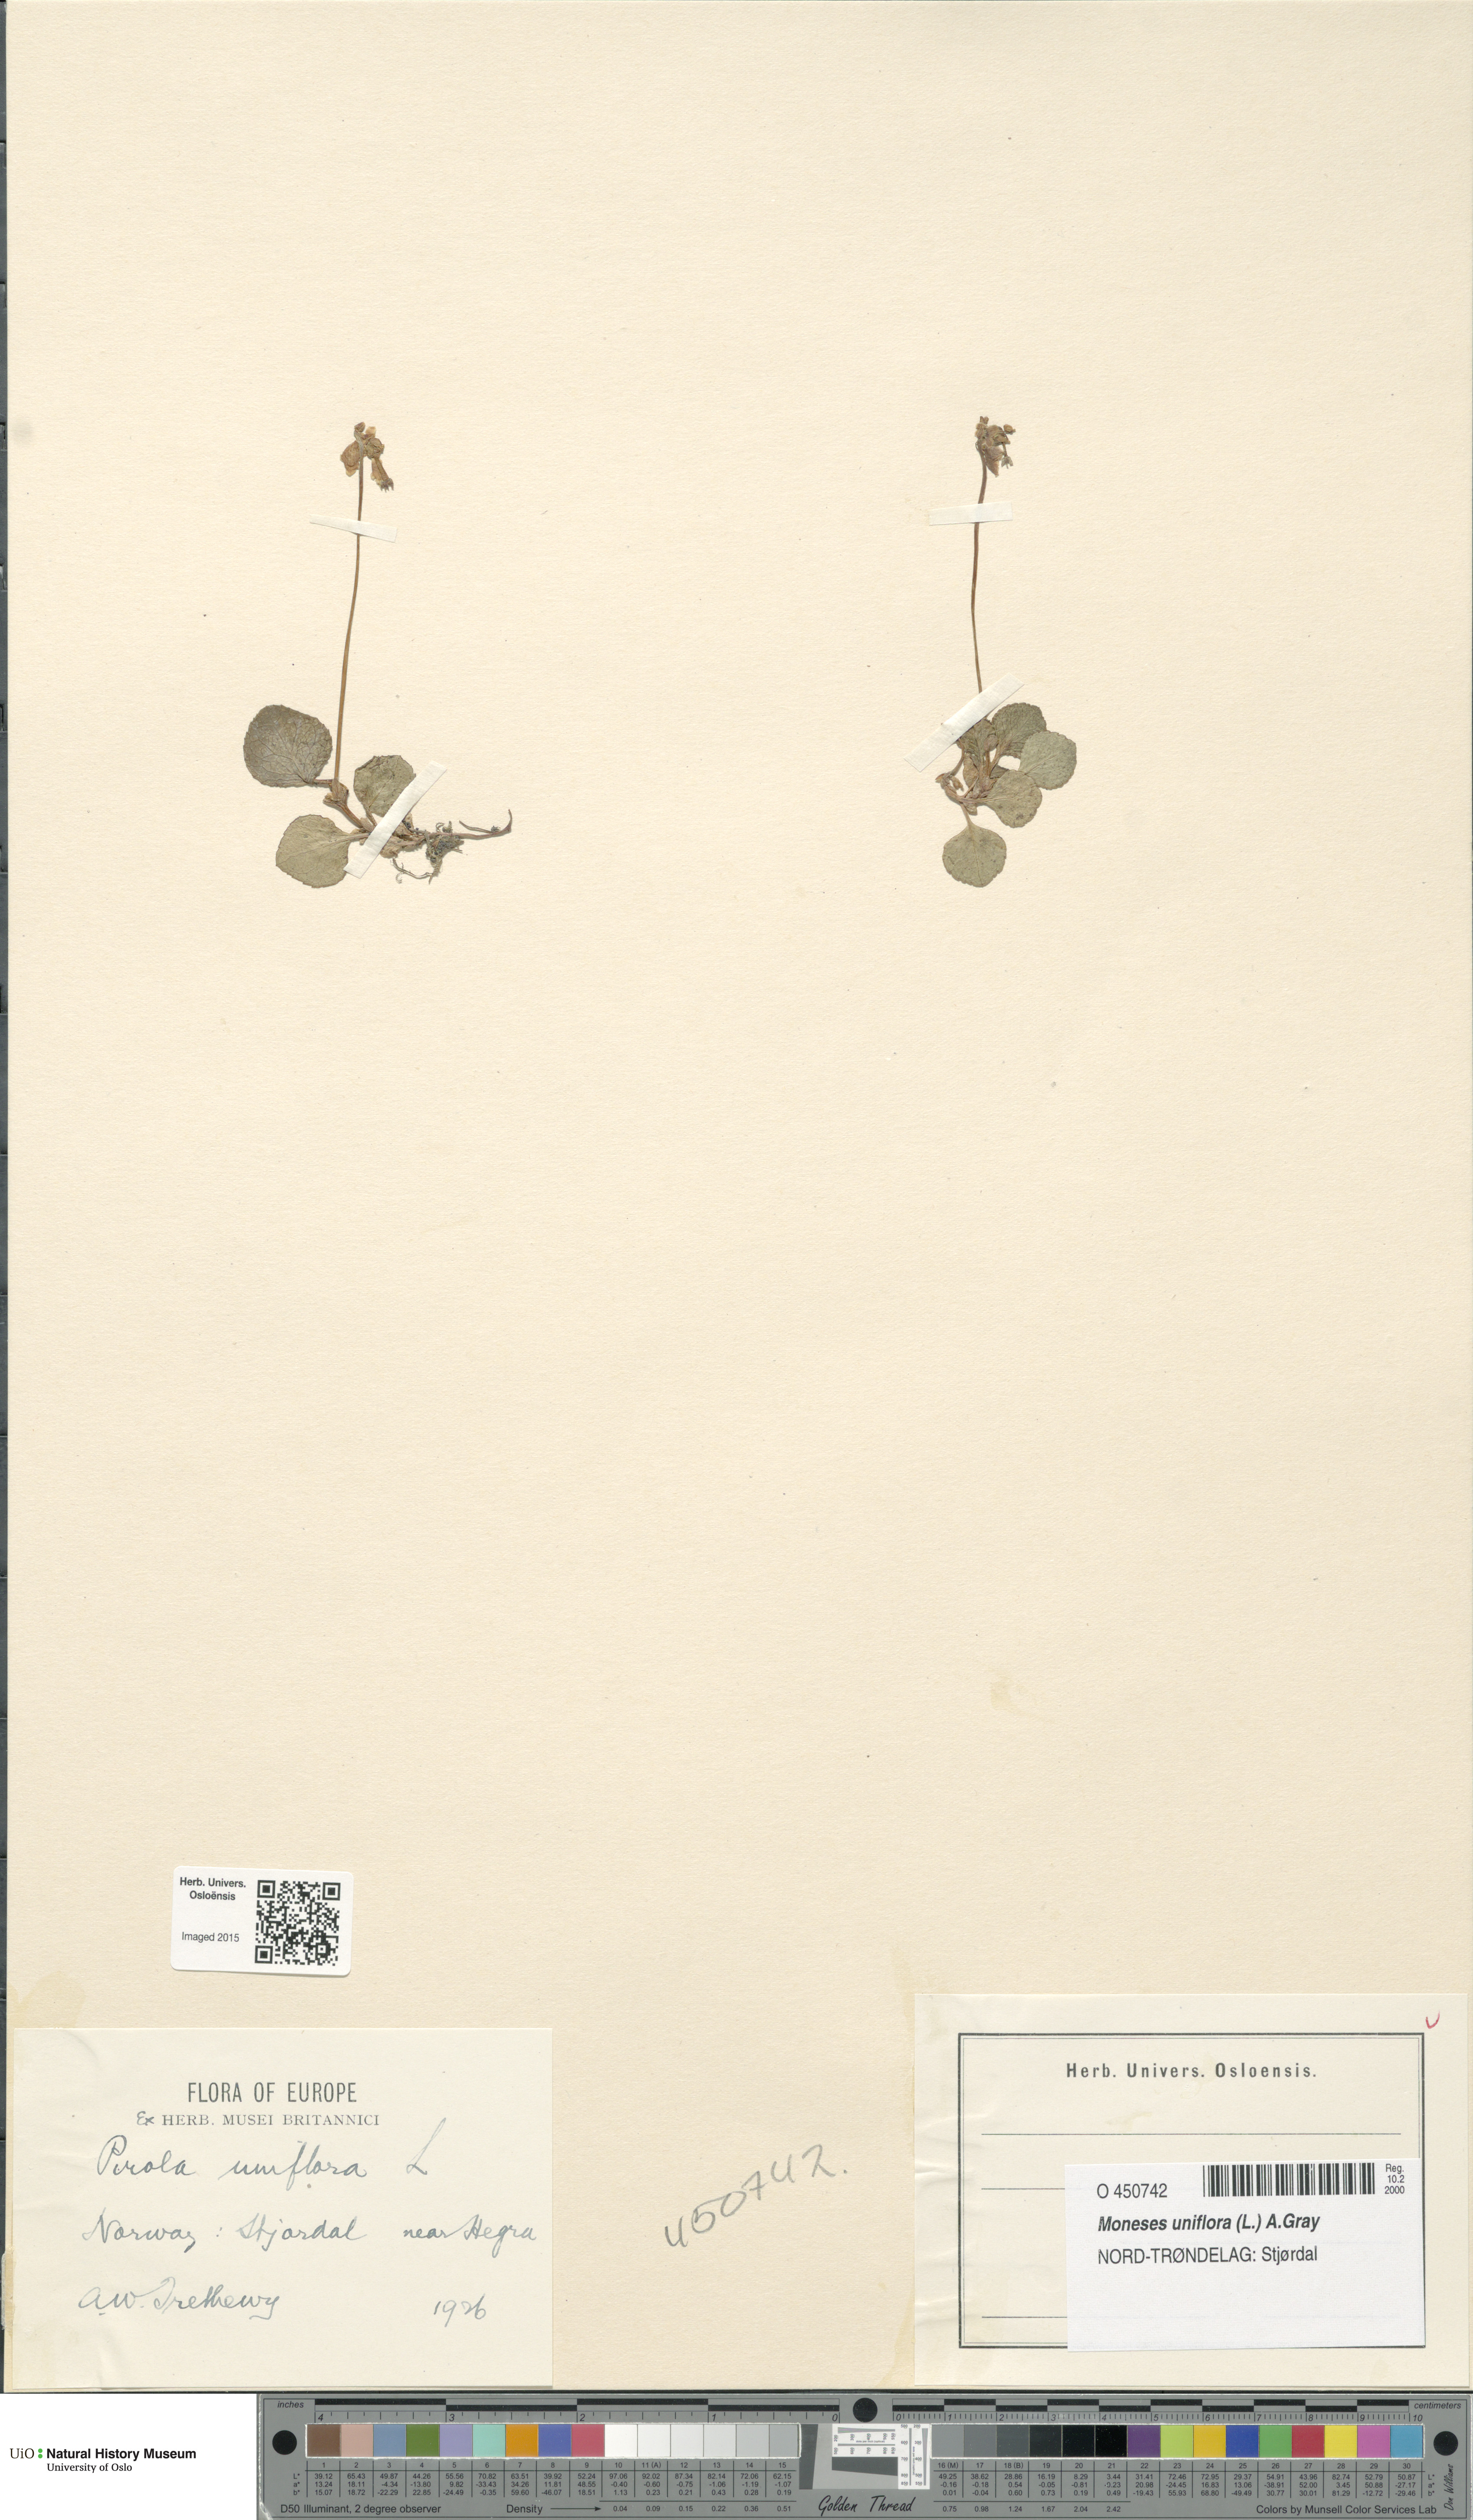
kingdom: Plantae
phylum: Tracheophyta
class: Magnoliopsida
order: Ericales
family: Ericaceae
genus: Moneses
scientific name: Moneses uniflora
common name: One-flowered wintergreen
